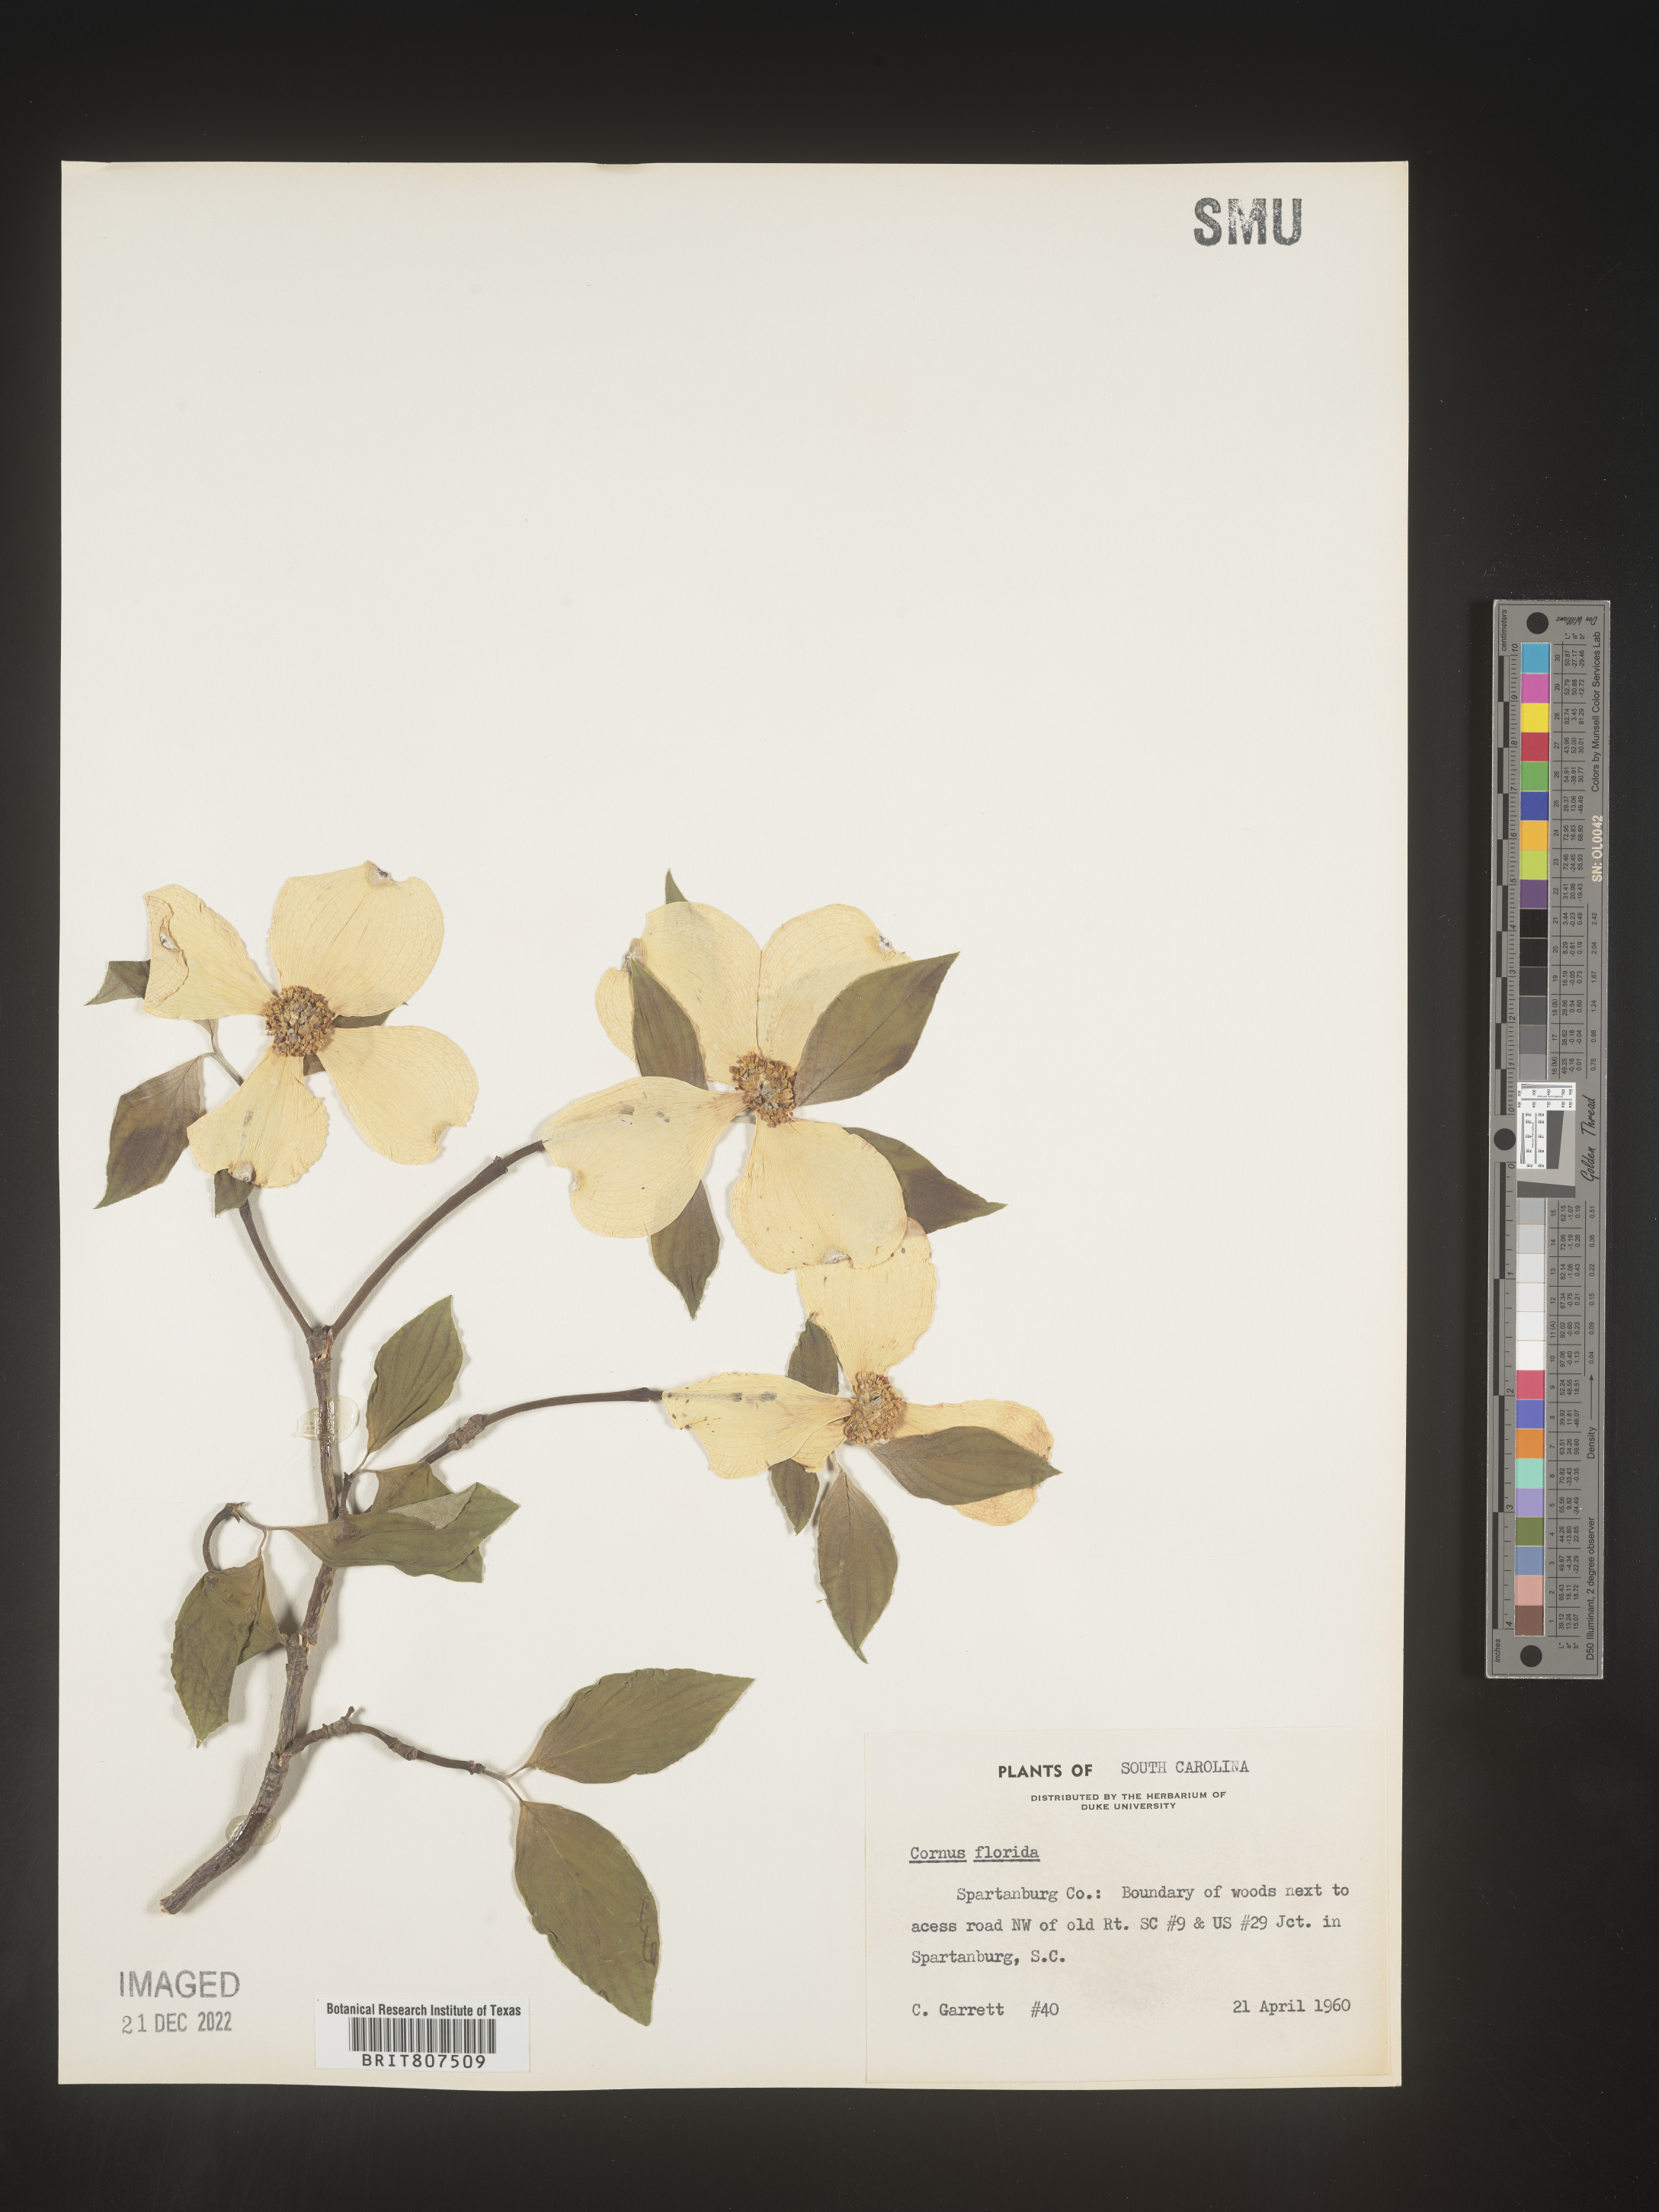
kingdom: Plantae
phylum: Tracheophyta
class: Magnoliopsida
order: Cornales
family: Cornaceae
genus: Cornus
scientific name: Cornus florida
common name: Flowering dogwood
